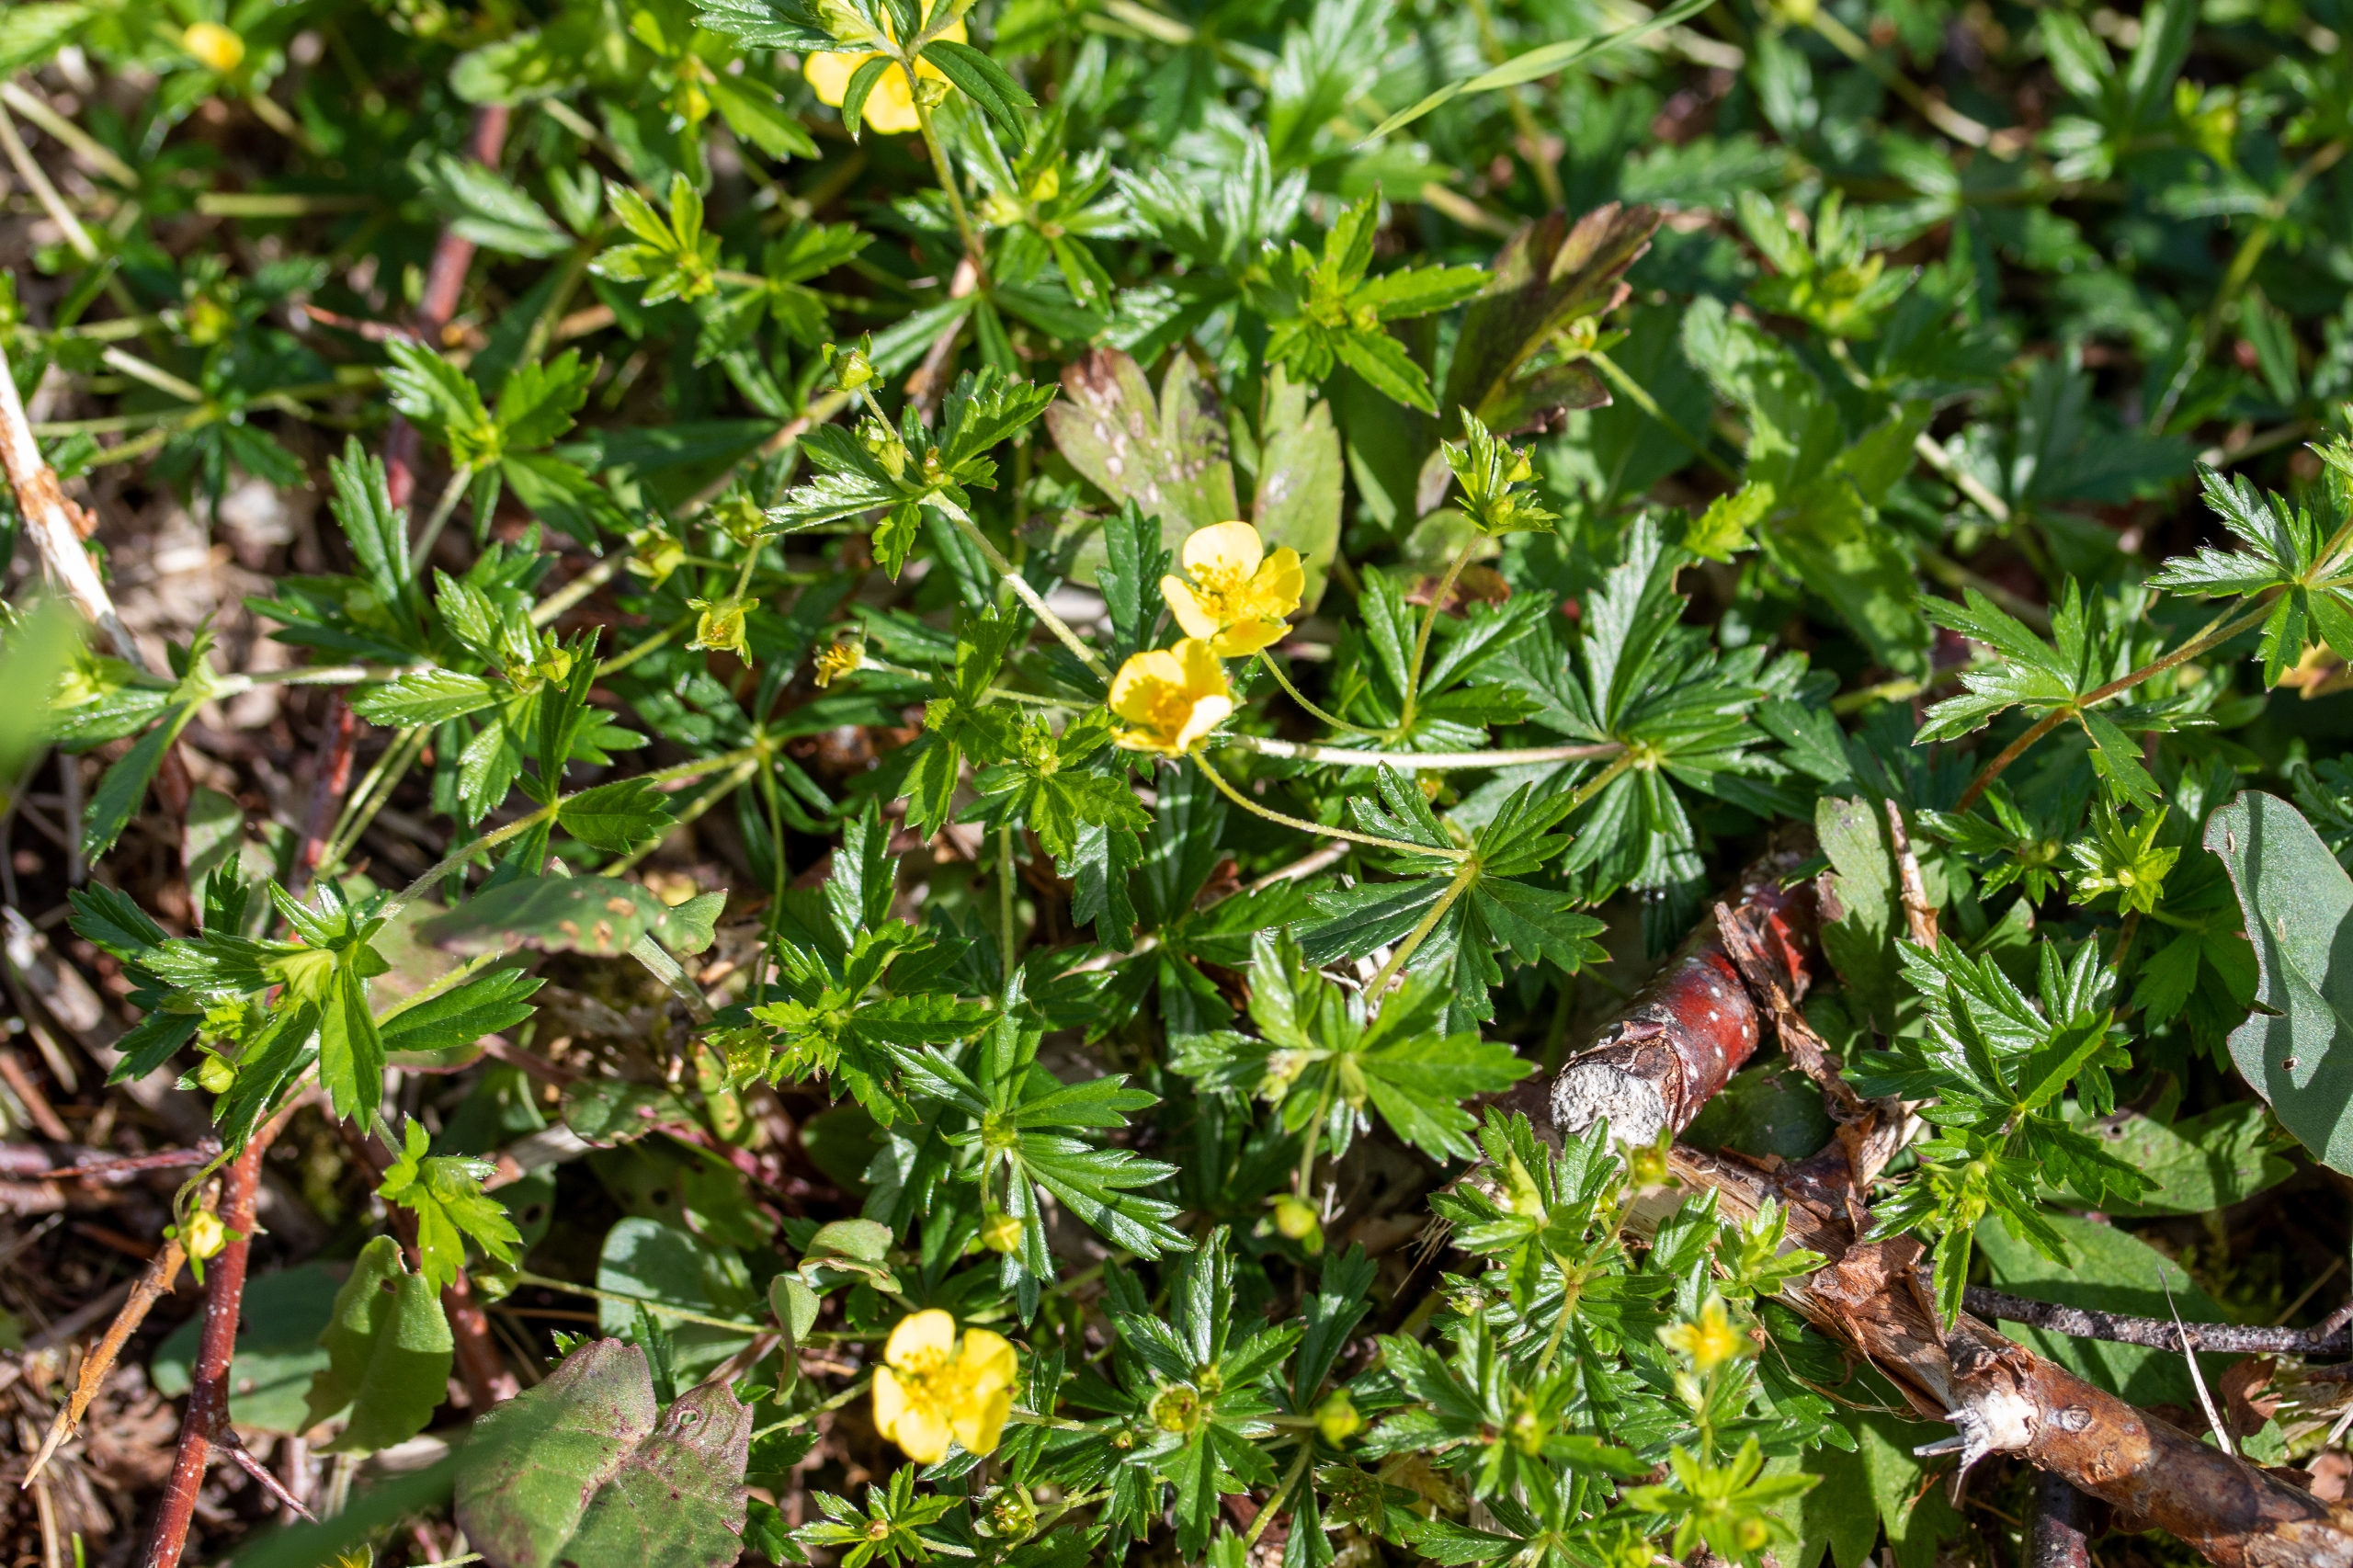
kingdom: Plantae
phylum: Tracheophyta
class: Magnoliopsida
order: Rosales
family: Rosaceae
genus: Potentilla
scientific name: Potentilla erecta
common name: Tormentil
